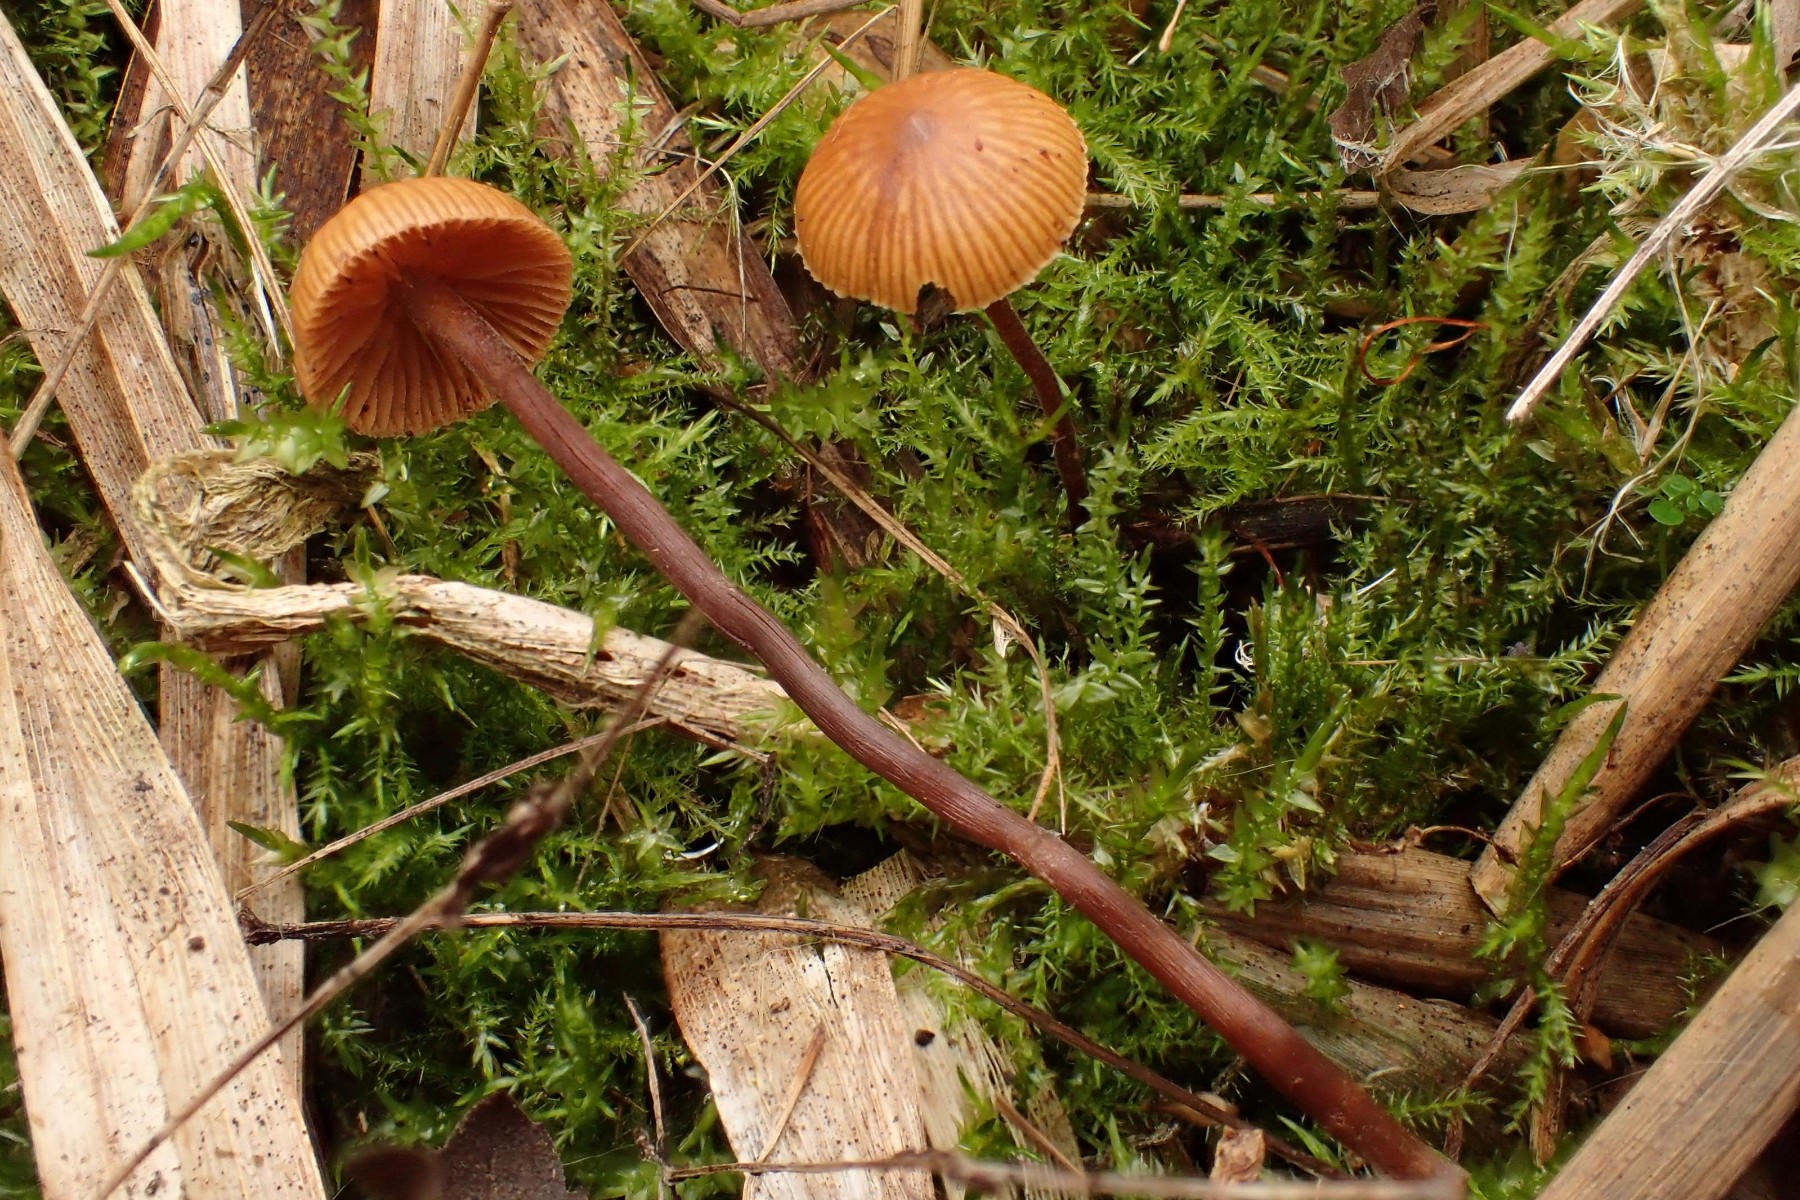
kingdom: Fungi
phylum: Basidiomycota
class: Agaricomycetes
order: Agaricales
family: Hymenogastraceae
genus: Galerina
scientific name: Galerina
